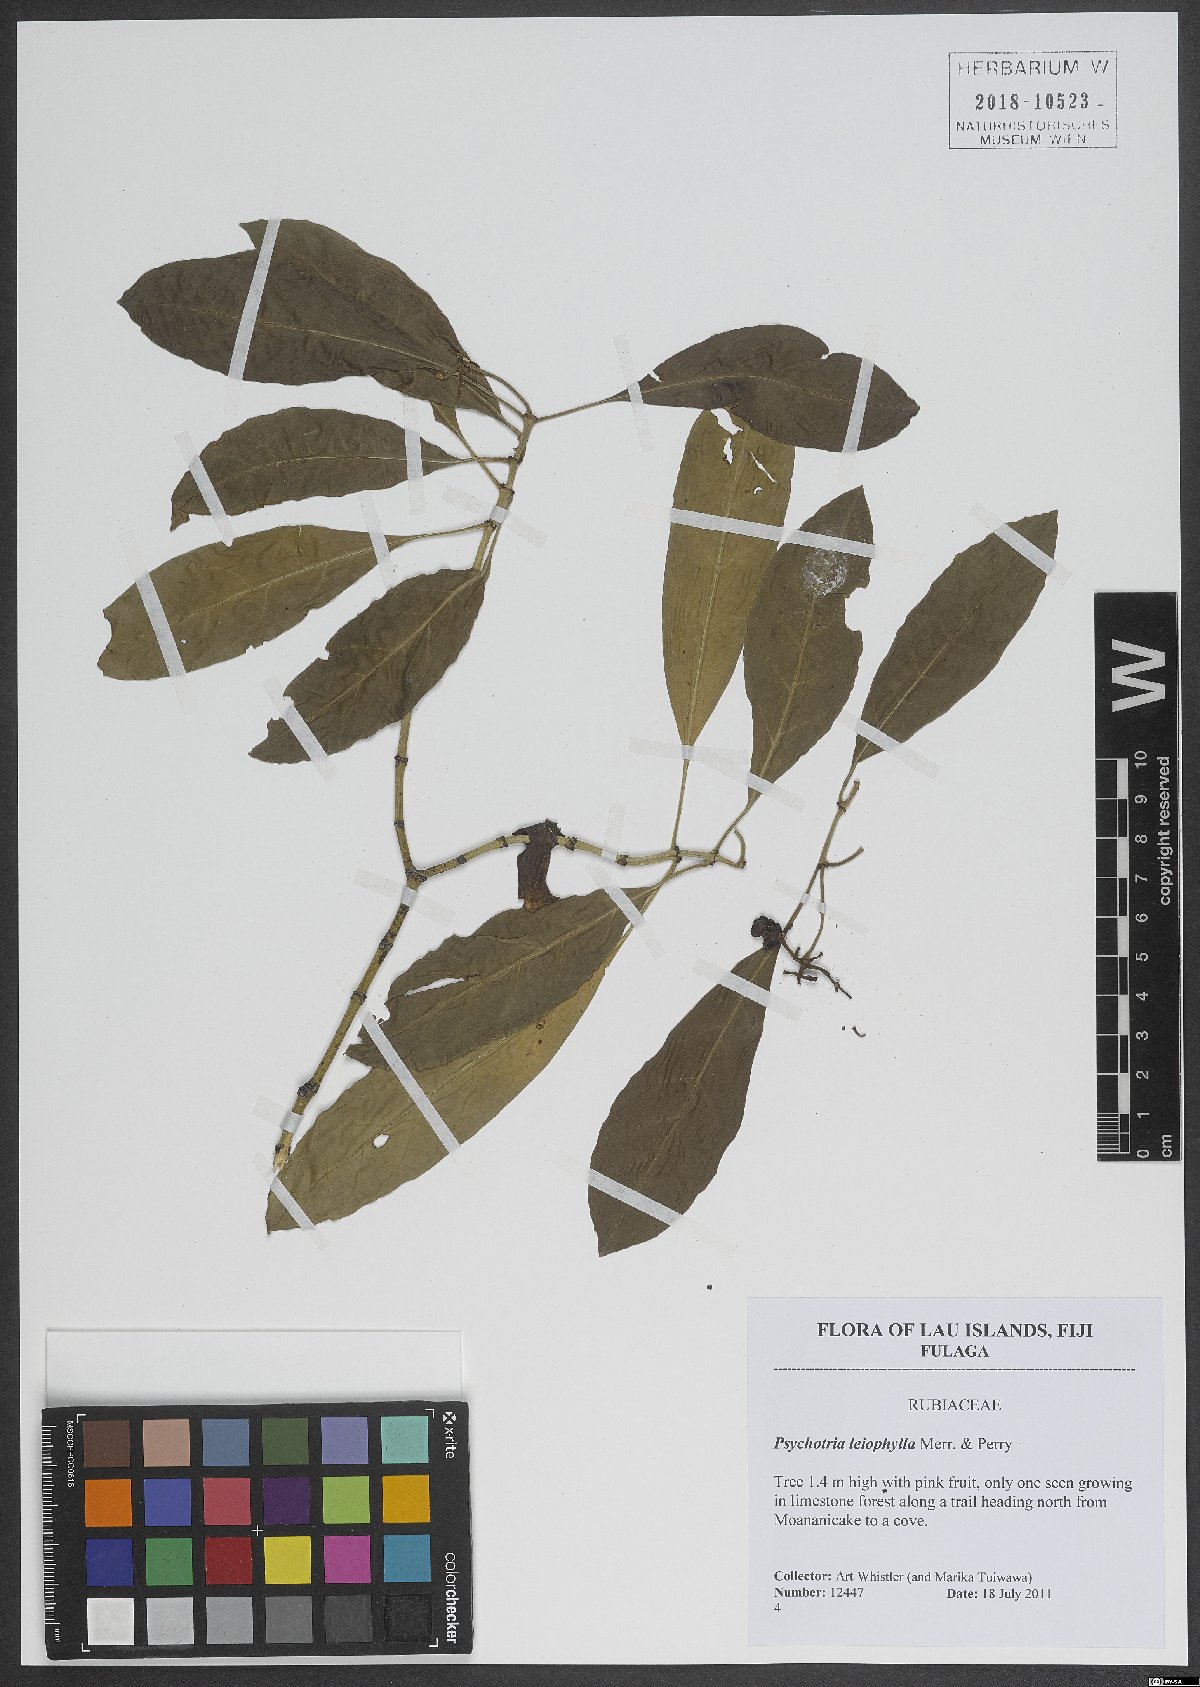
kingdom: Plantae
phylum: Tracheophyta
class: Magnoliopsida
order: Gentianales
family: Rubiaceae
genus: Psychotria
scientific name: Psychotria leiophylla
